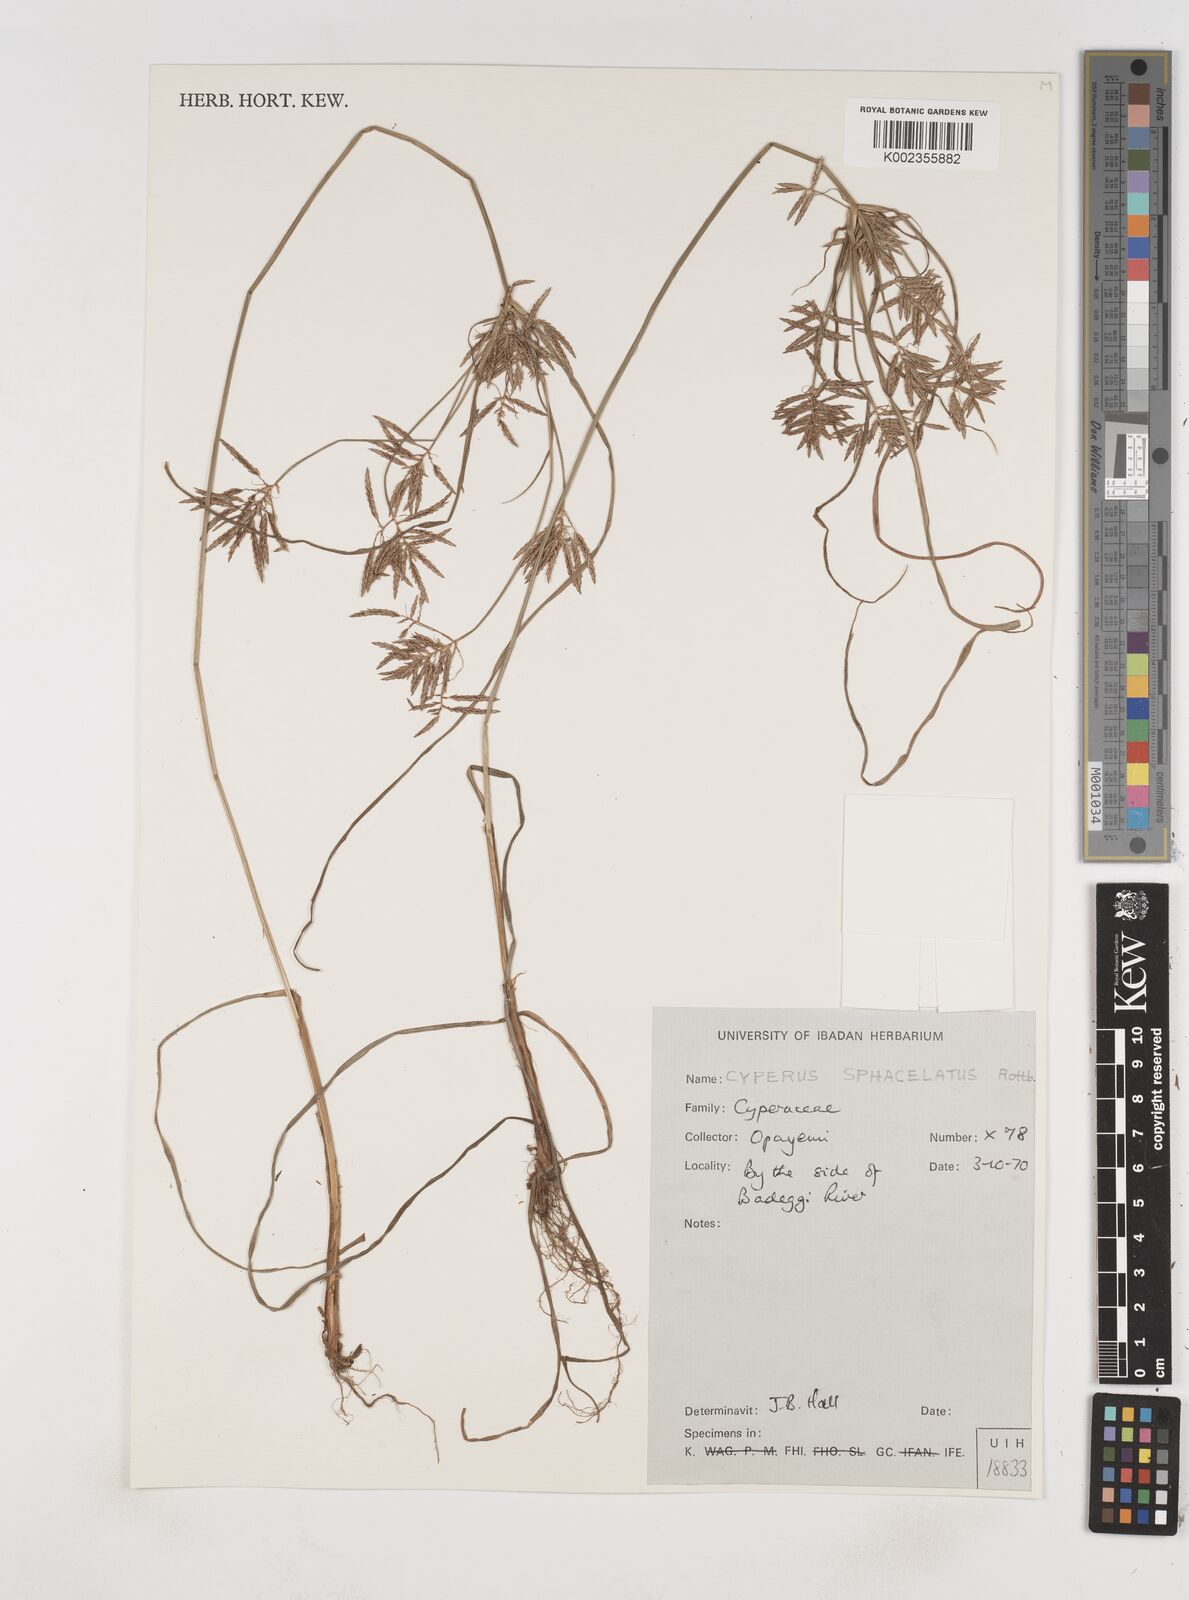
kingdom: Plantae
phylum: Tracheophyta
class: Liliopsida
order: Poales
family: Cyperaceae
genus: Cyperus
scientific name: Cyperus sphacelatus
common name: Roadside flatsedge
